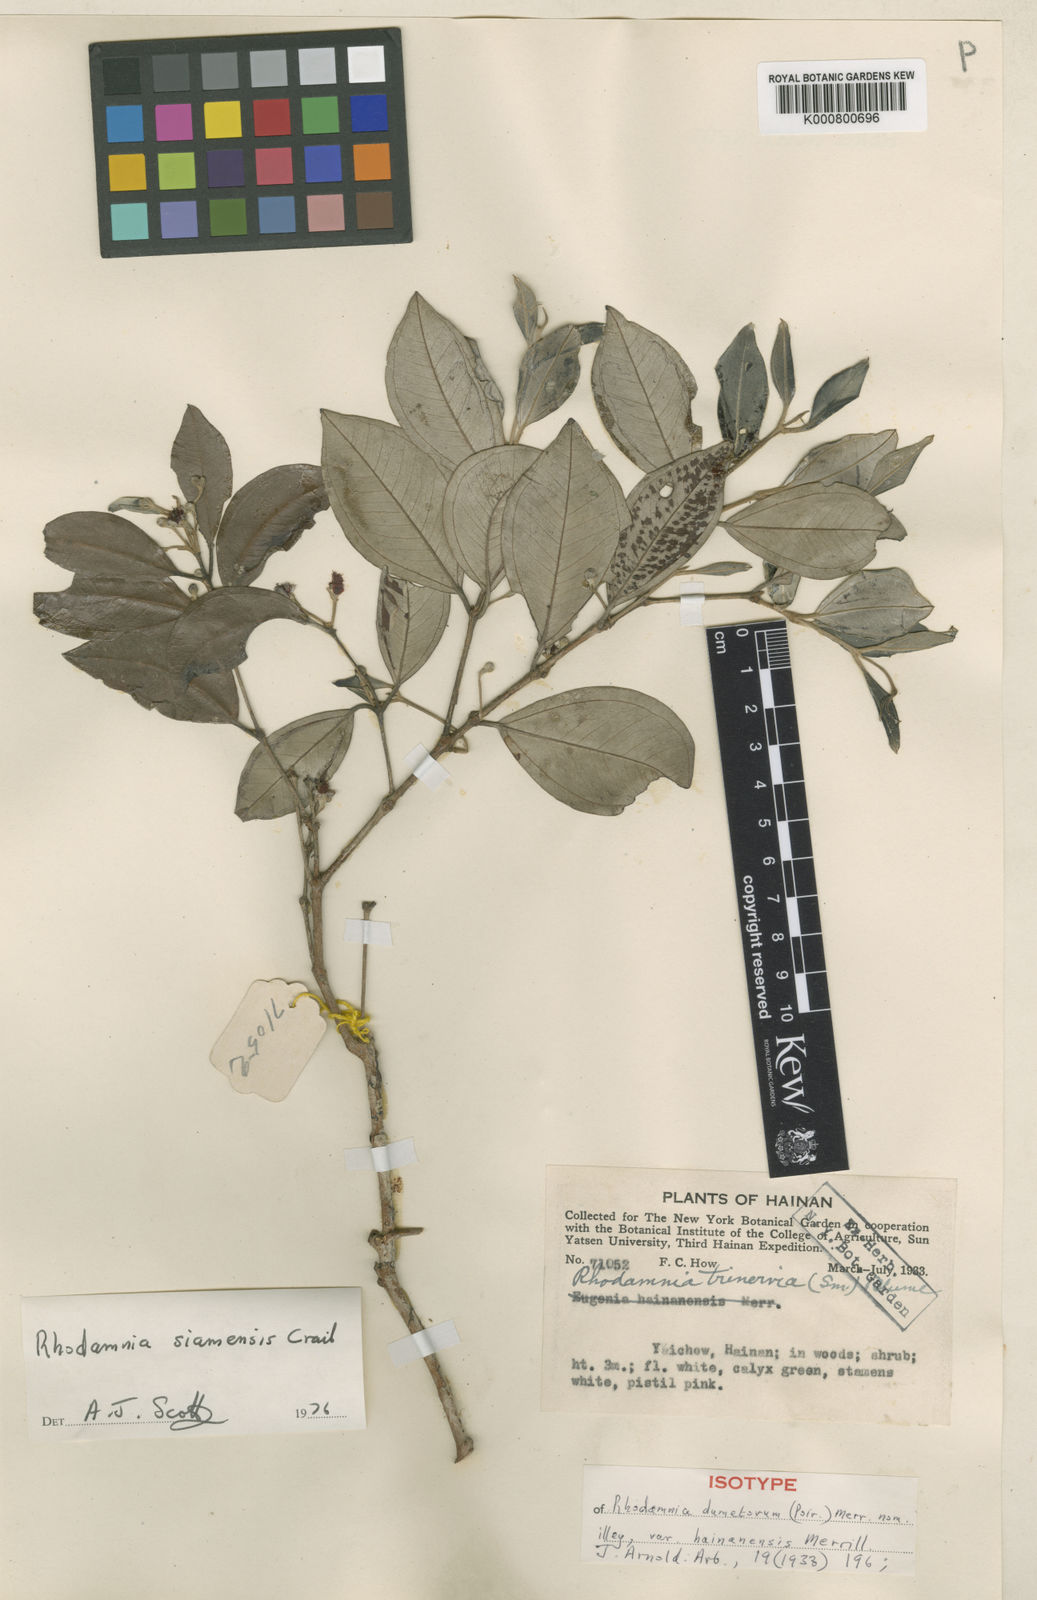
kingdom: Plantae
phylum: Tracheophyta
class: Magnoliopsida
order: Myrtales
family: Myrtaceae
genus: Rhodamnia
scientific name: Rhodamnia dumetorum
